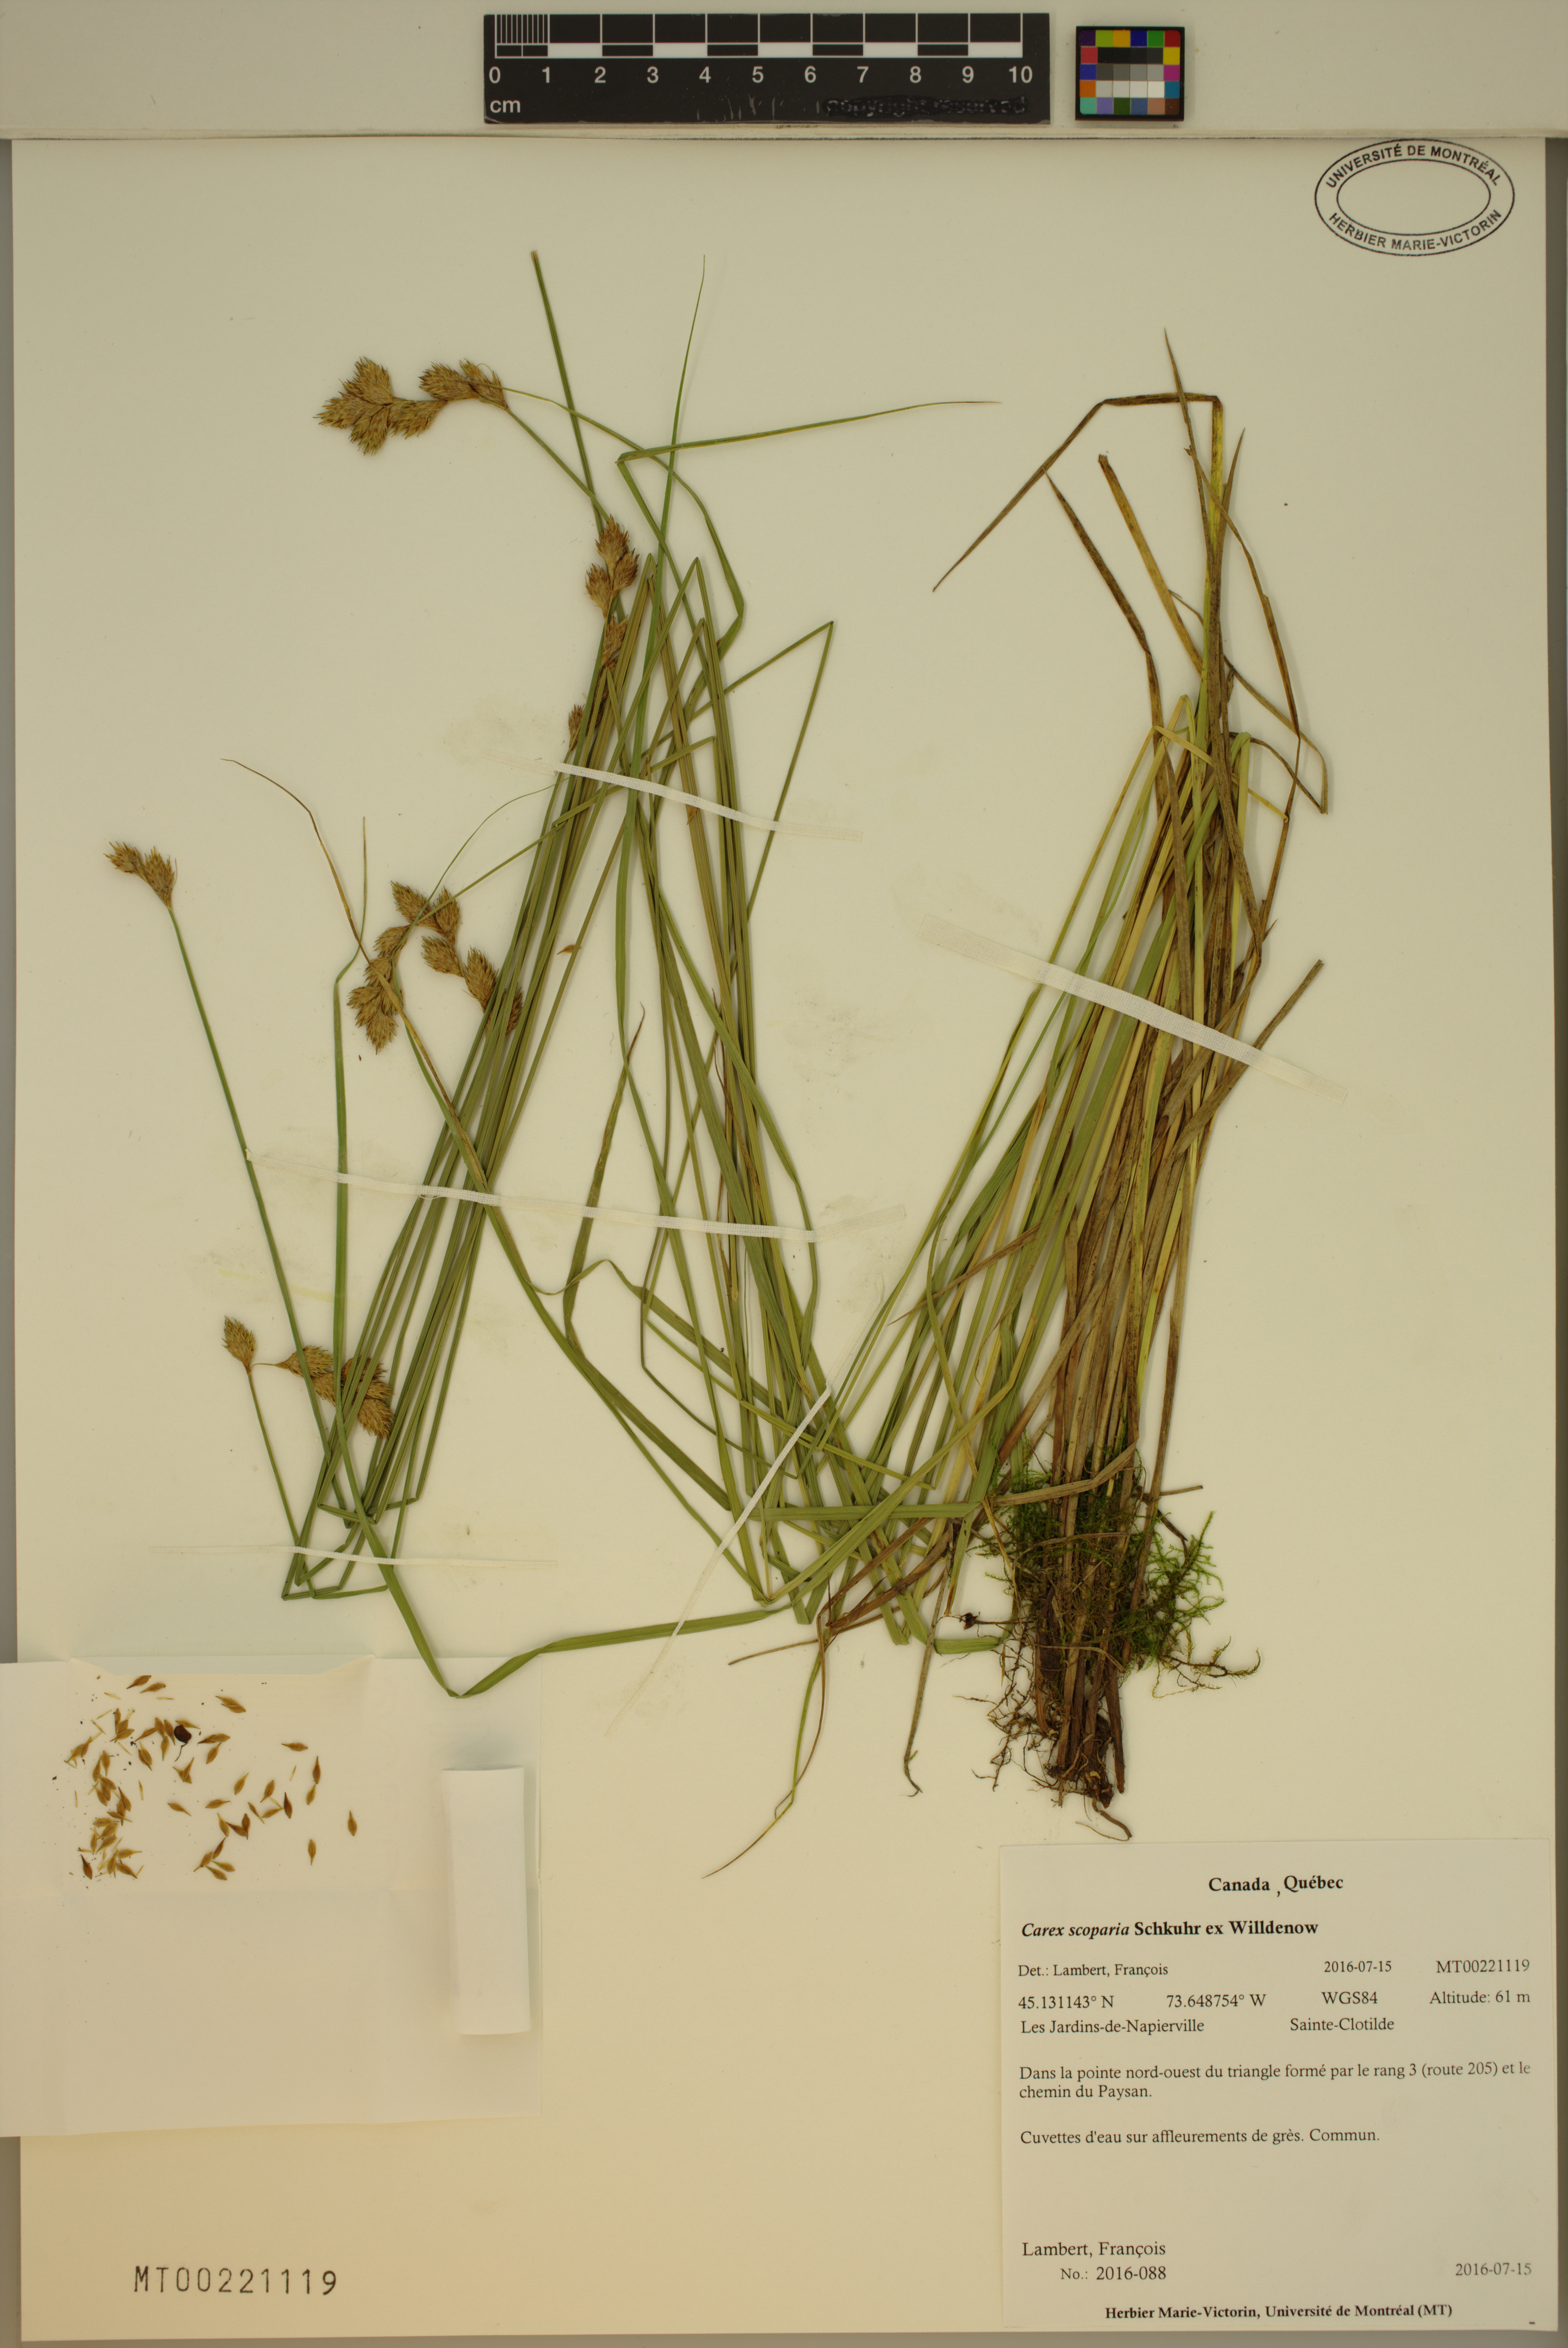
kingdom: Plantae
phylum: Tracheophyta
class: Liliopsida
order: Poales
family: Cyperaceae
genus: Carex
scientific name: Carex scoparia
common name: Broom sedge
